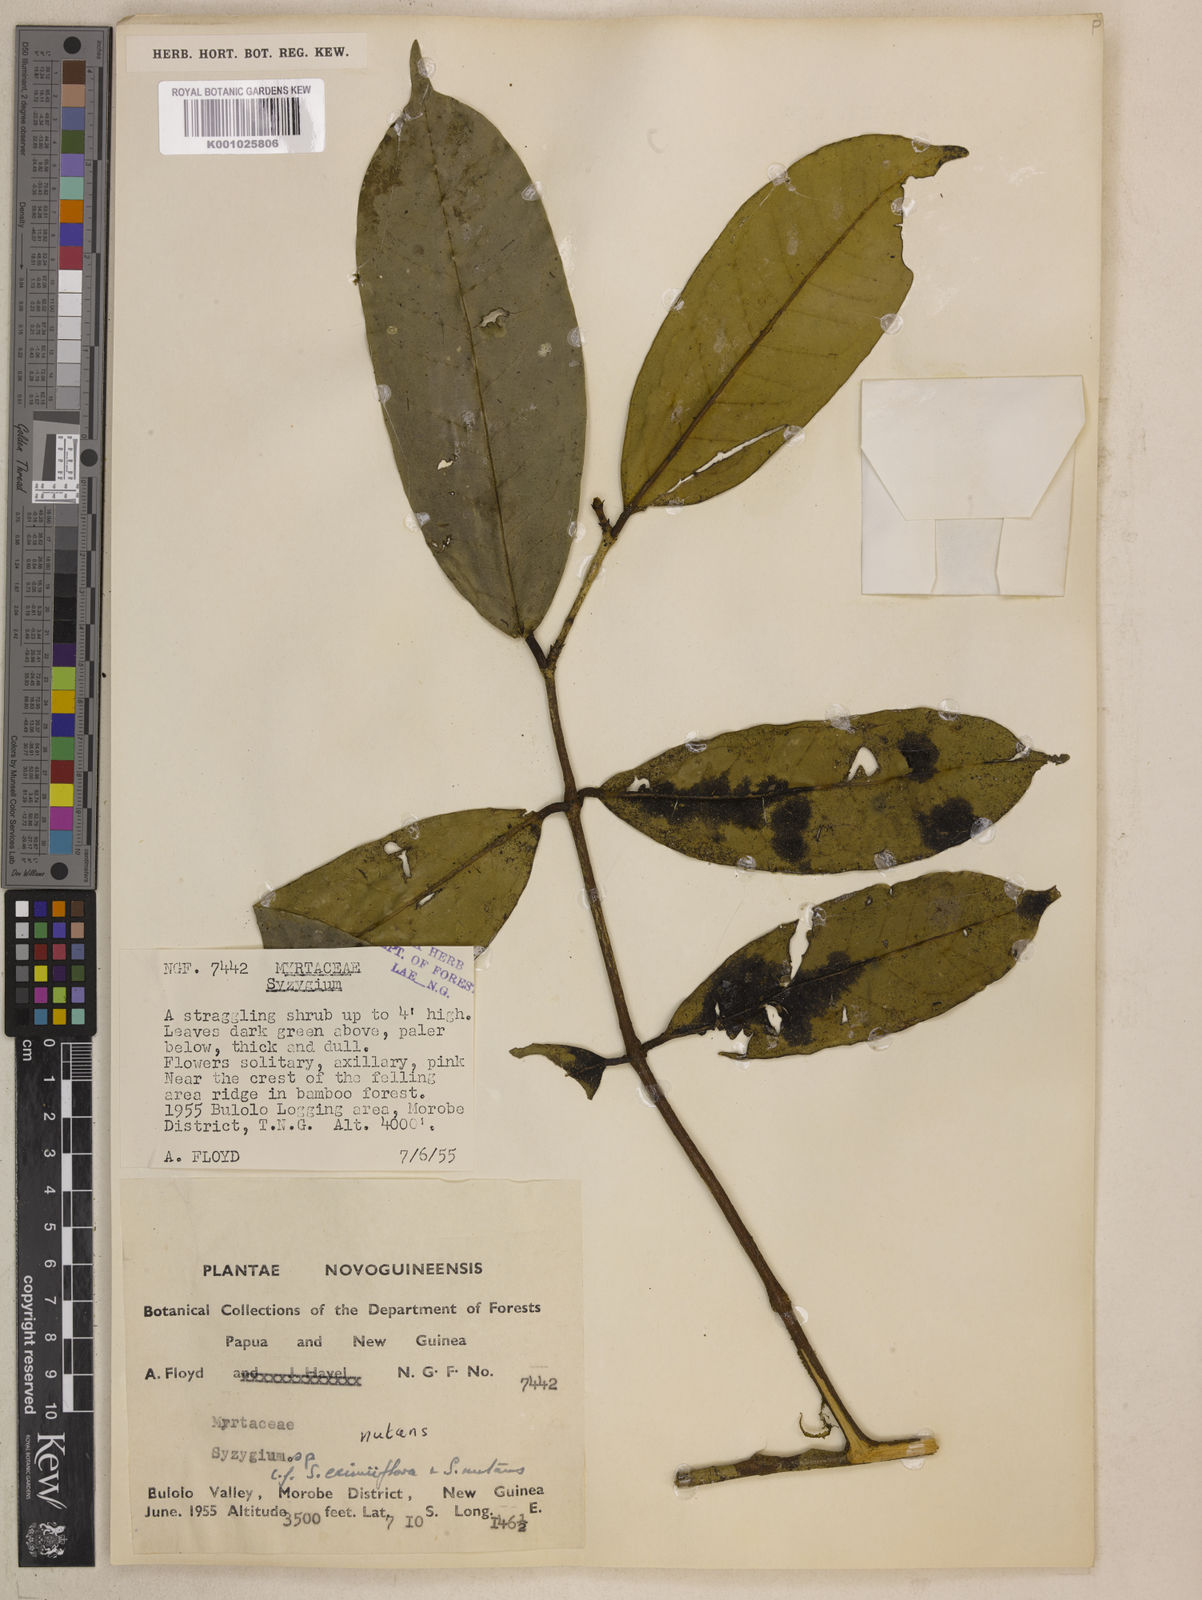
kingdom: Plantae
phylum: Tracheophyta
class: Magnoliopsida
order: Myrtales
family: Myrtaceae
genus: Syzygium
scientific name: Syzygium nutans
